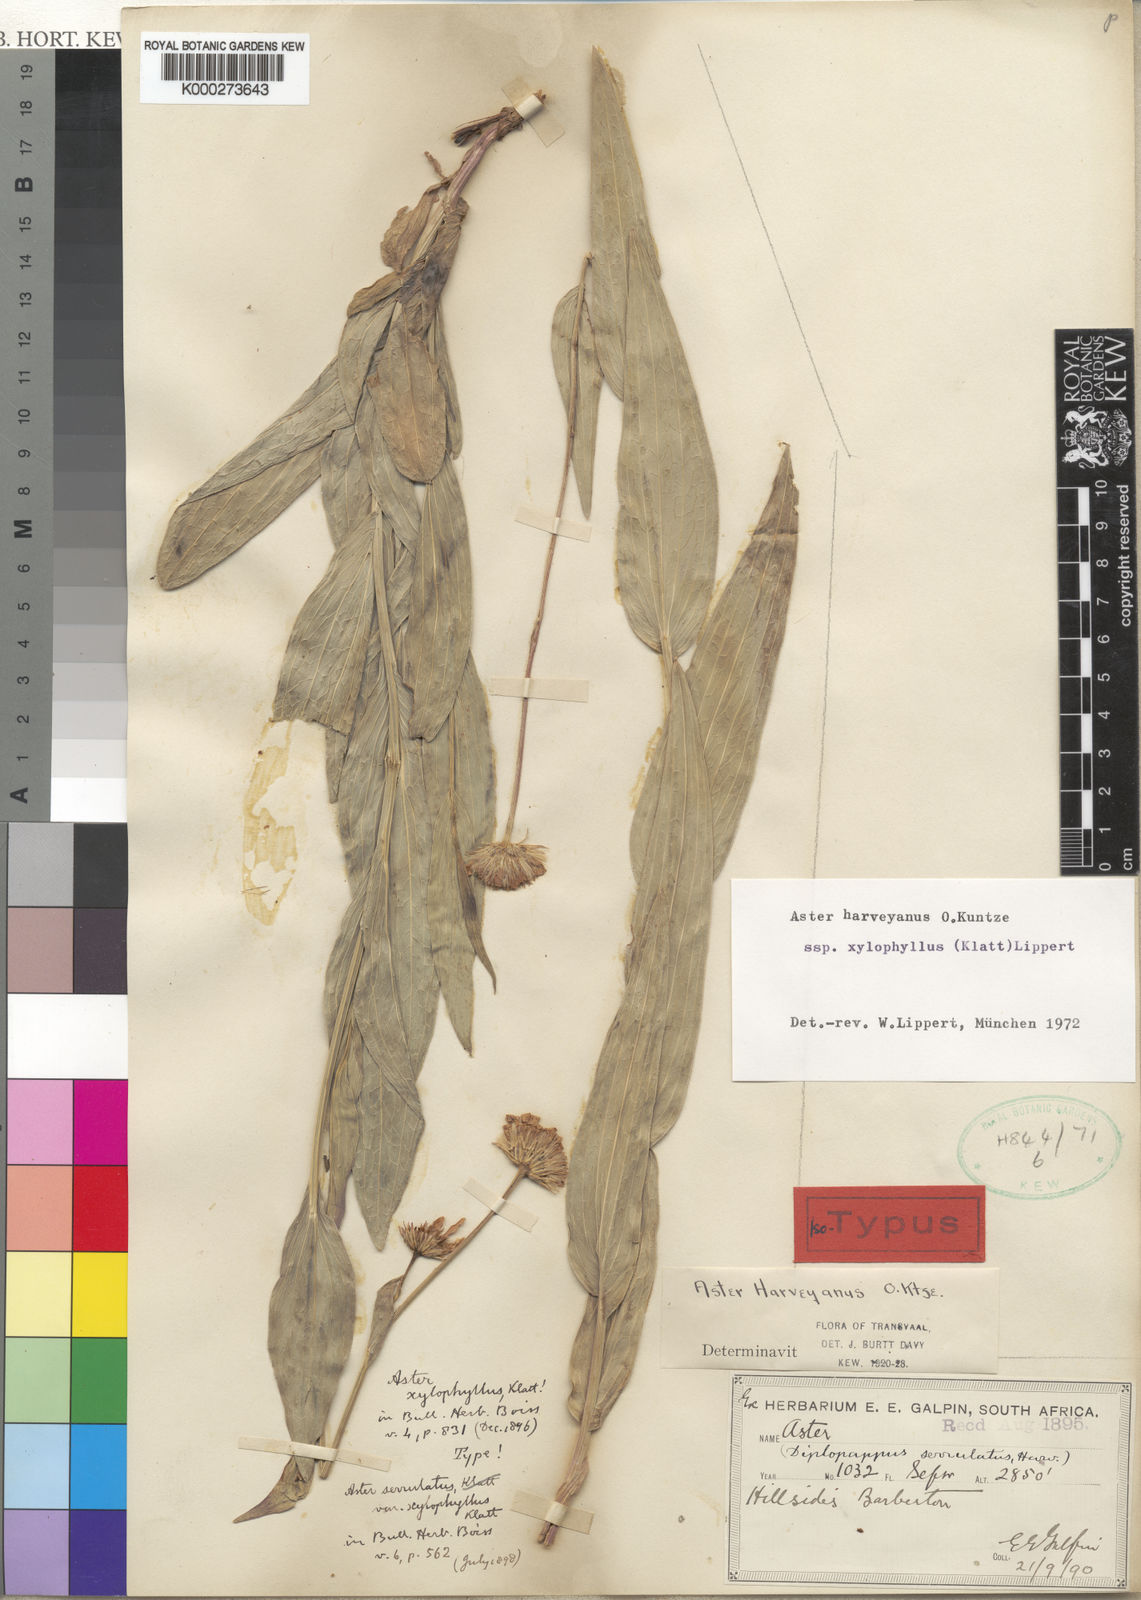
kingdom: Plantae
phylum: Tracheophyta
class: Magnoliopsida
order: Asterales
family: Asteraceae
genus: Afroaster
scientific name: Afroaster serrulatus
